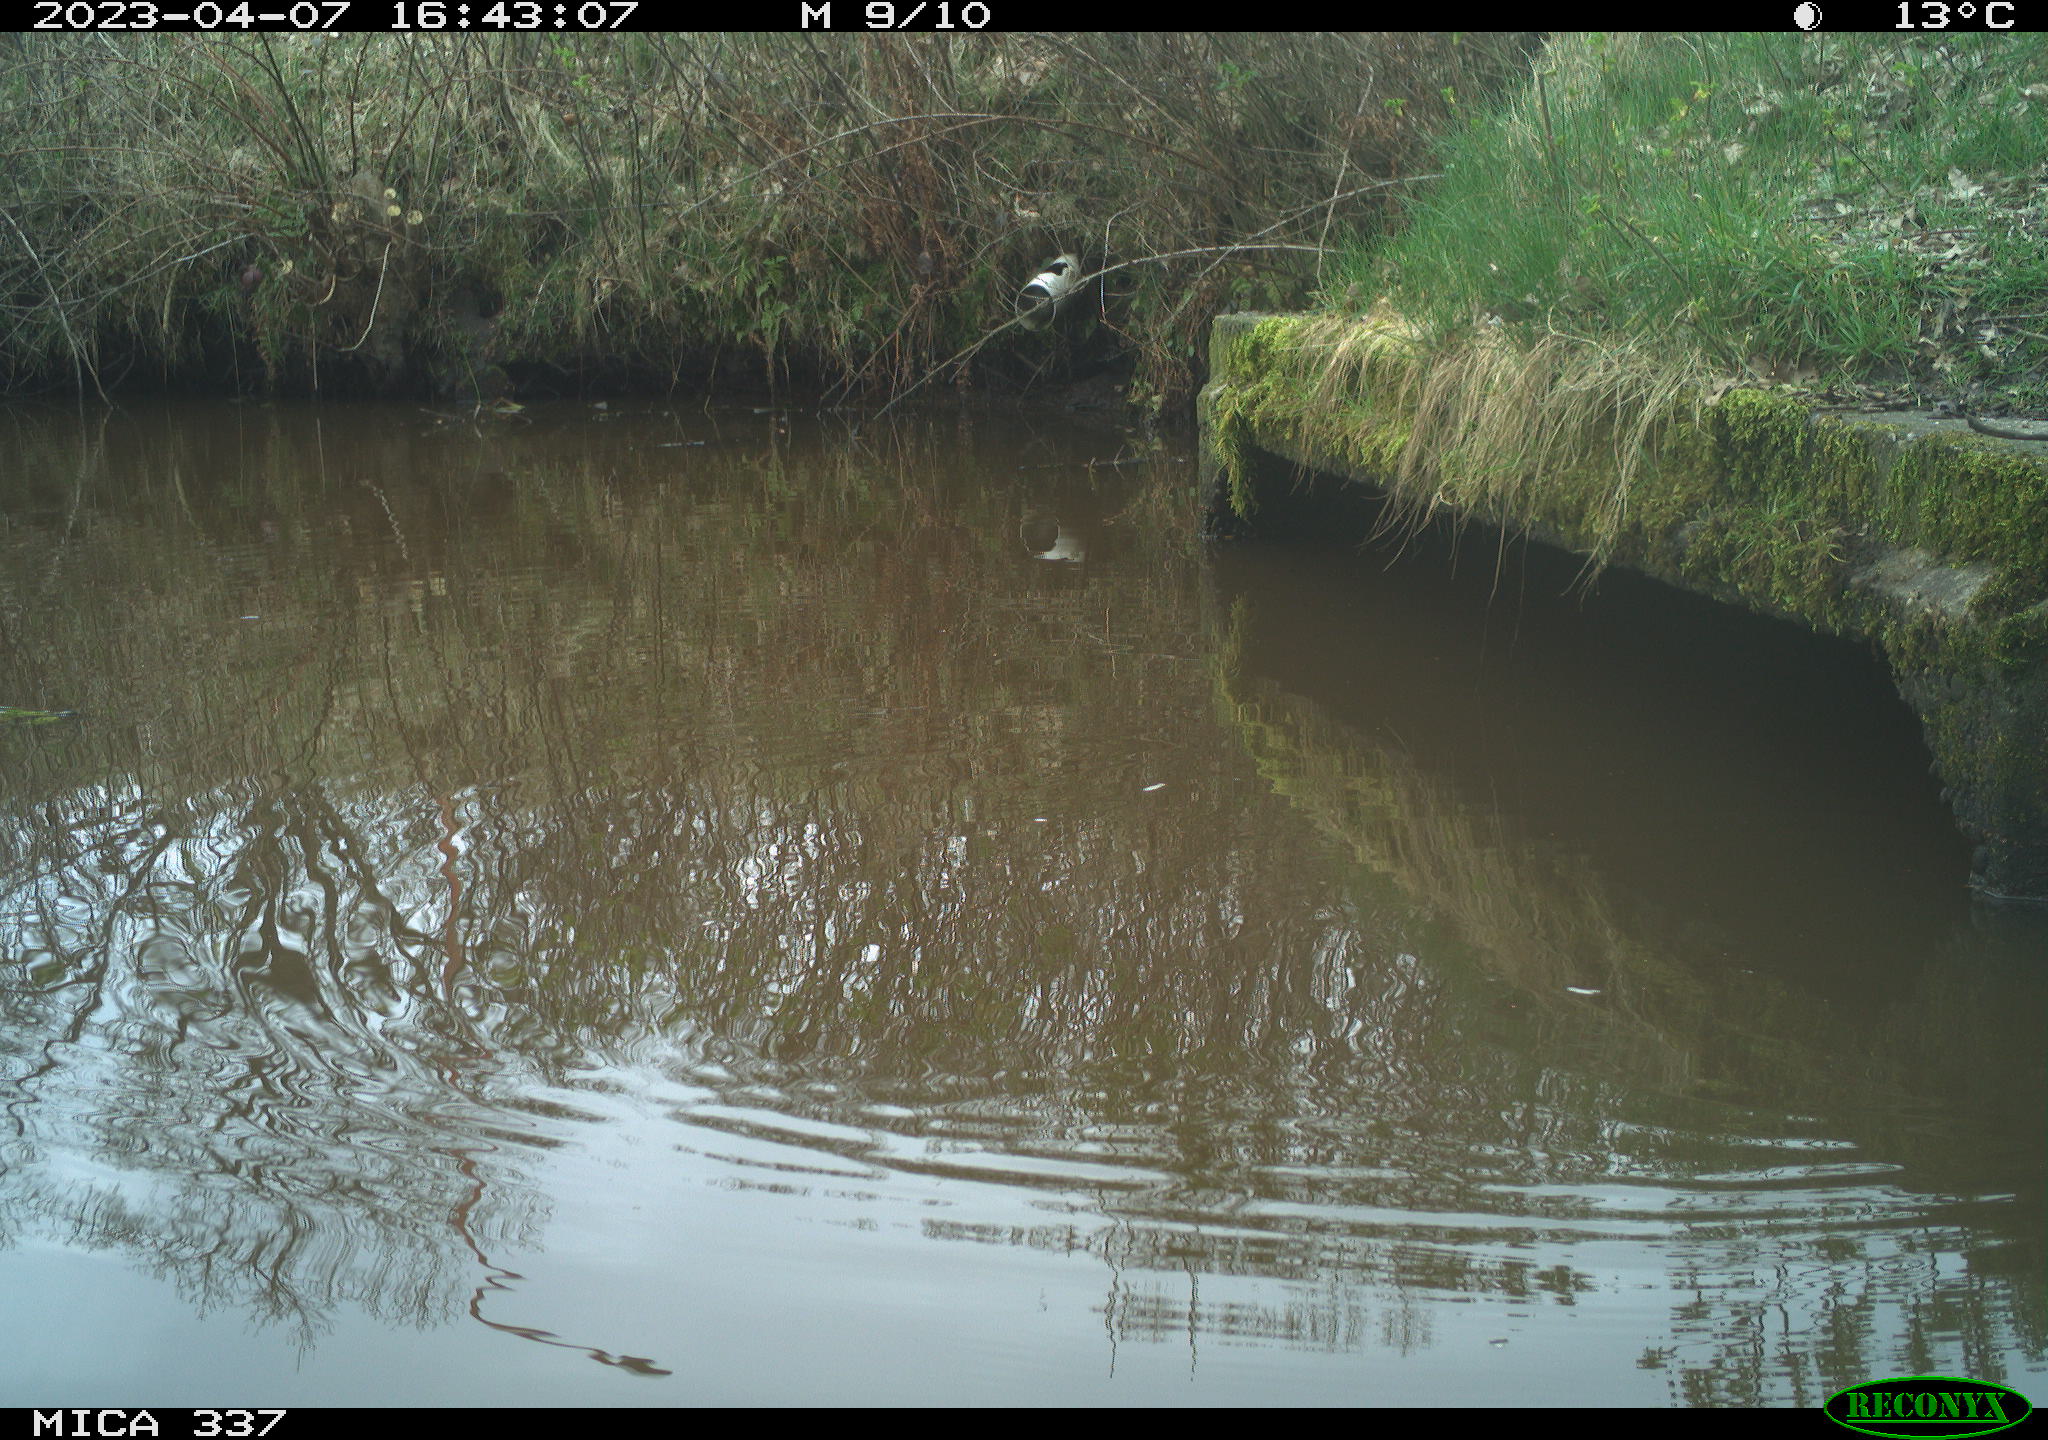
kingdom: Animalia
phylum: Chordata
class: Aves
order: Gruiformes
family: Rallidae
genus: Gallinula
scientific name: Gallinula chloropus
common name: Common moorhen
